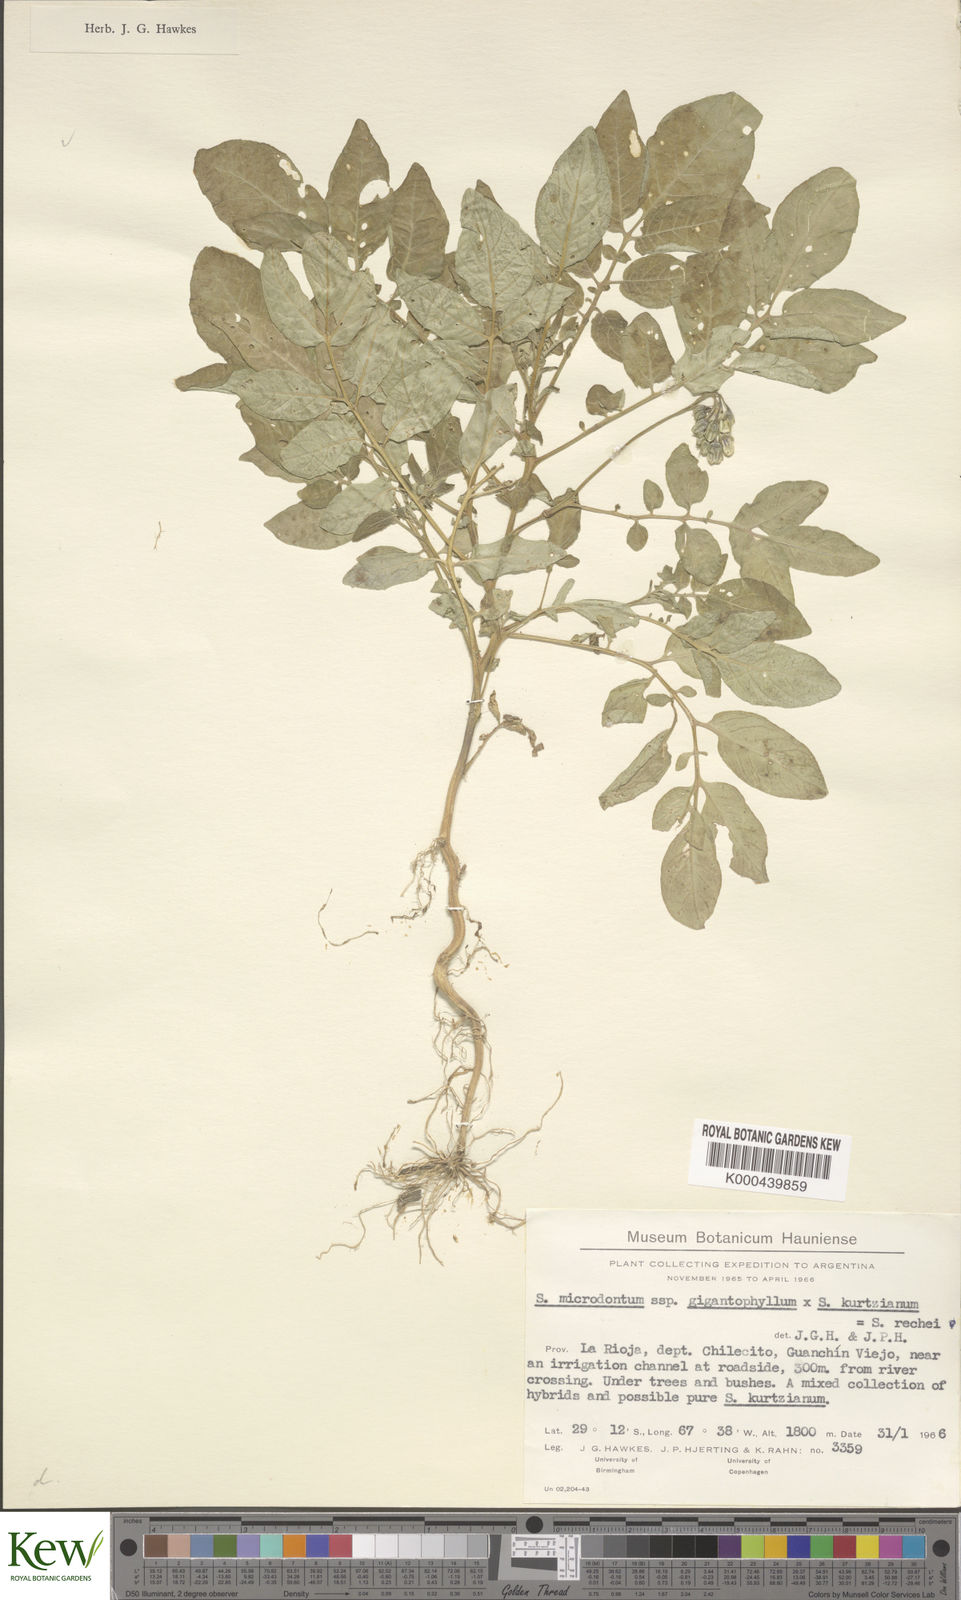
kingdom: Plantae
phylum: Tracheophyta
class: Magnoliopsida
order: Solanales
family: Solanaceae
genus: Solanum
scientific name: Solanum microdontum
